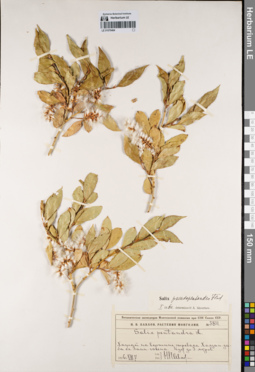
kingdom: Plantae
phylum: Tracheophyta
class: Magnoliopsida
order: Malpighiales
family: Salicaceae
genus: Salix
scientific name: Salix pseudopentandra
